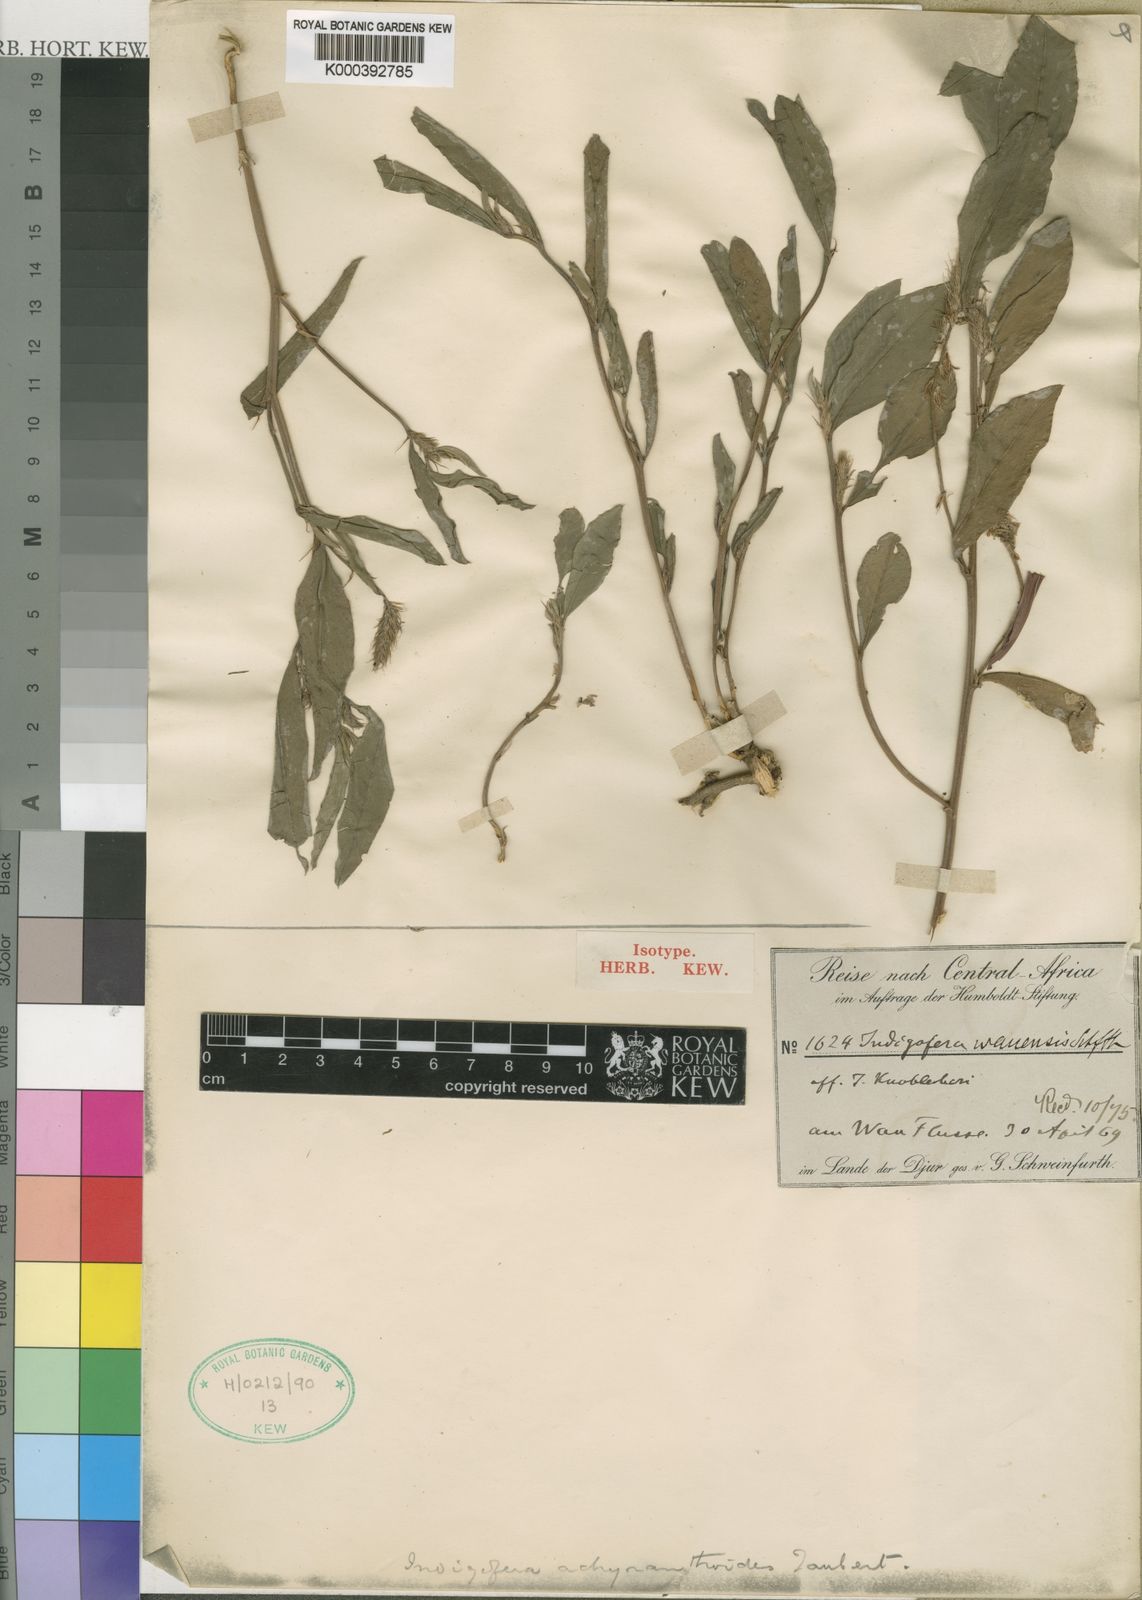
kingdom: Plantae
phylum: Tracheophyta
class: Magnoliopsida
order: Fabales
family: Fabaceae
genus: Indigofera
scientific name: Indigofera achyranthoides
